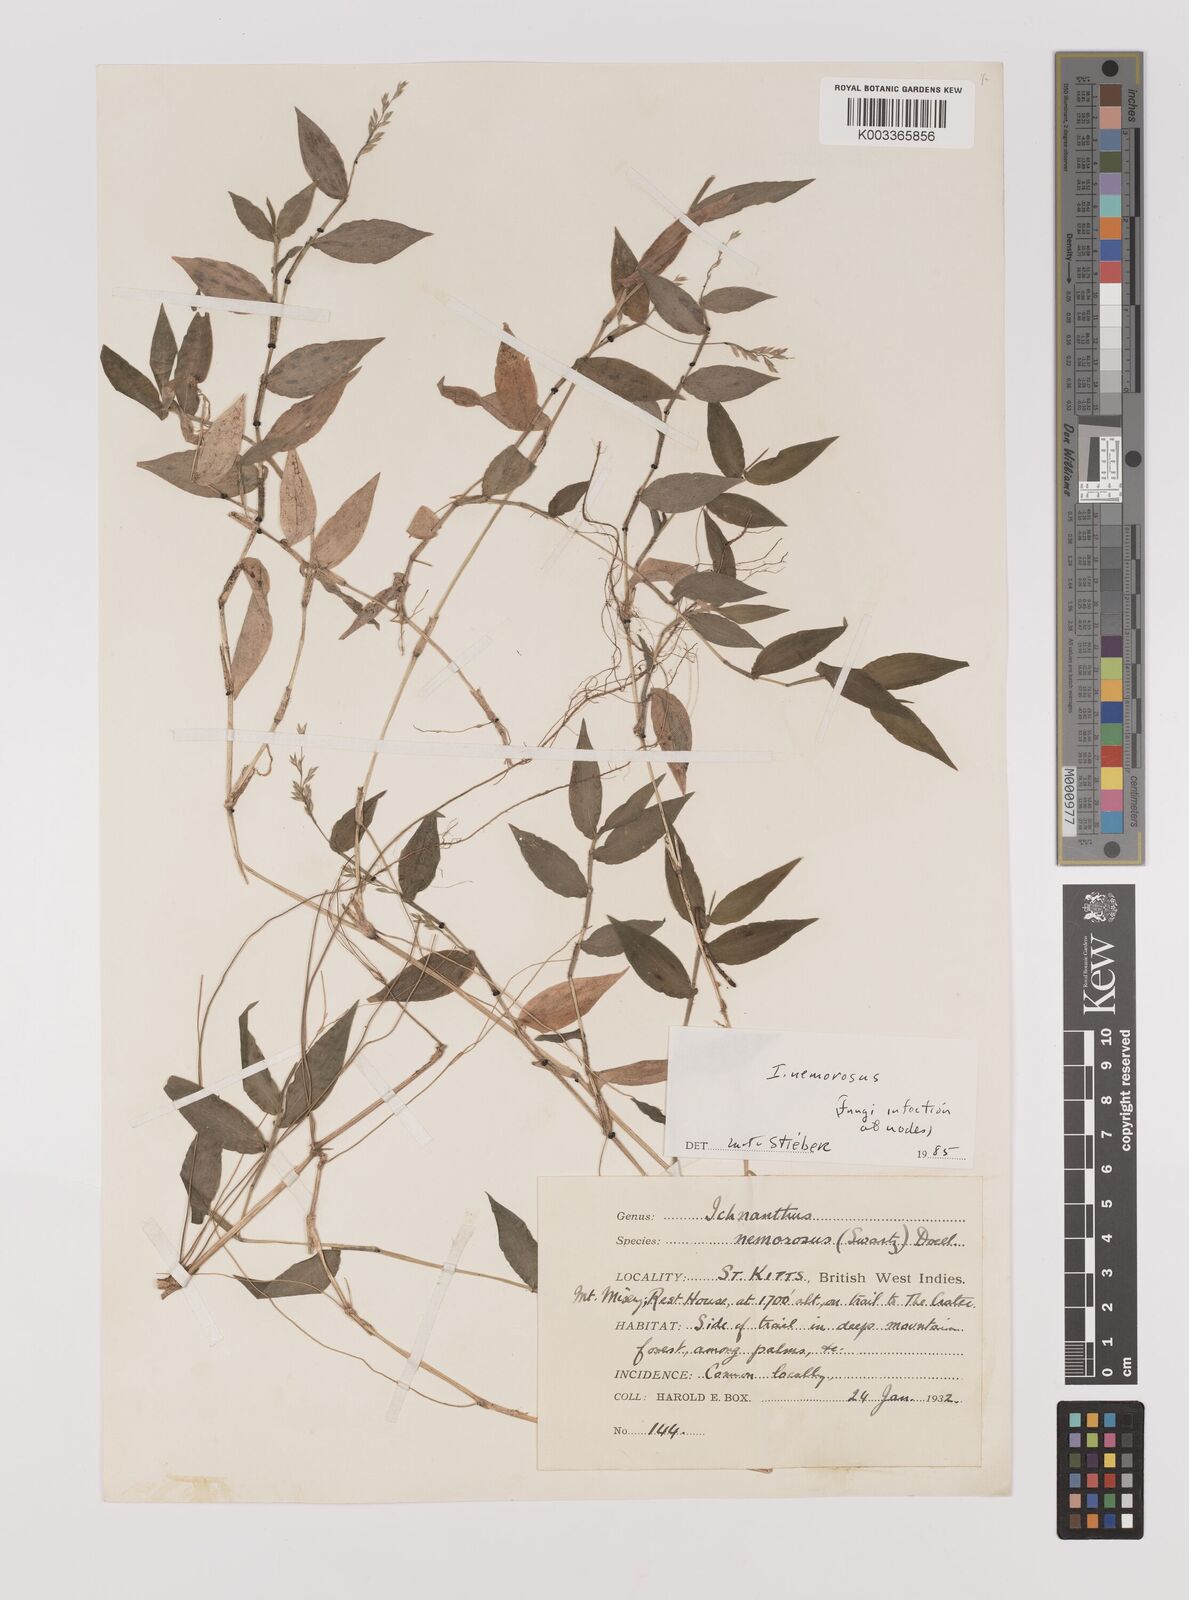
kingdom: Plantae
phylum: Tracheophyta
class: Liliopsida
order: Poales
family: Poaceae
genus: Ichnanthus
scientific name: Ichnanthus nemorosus
